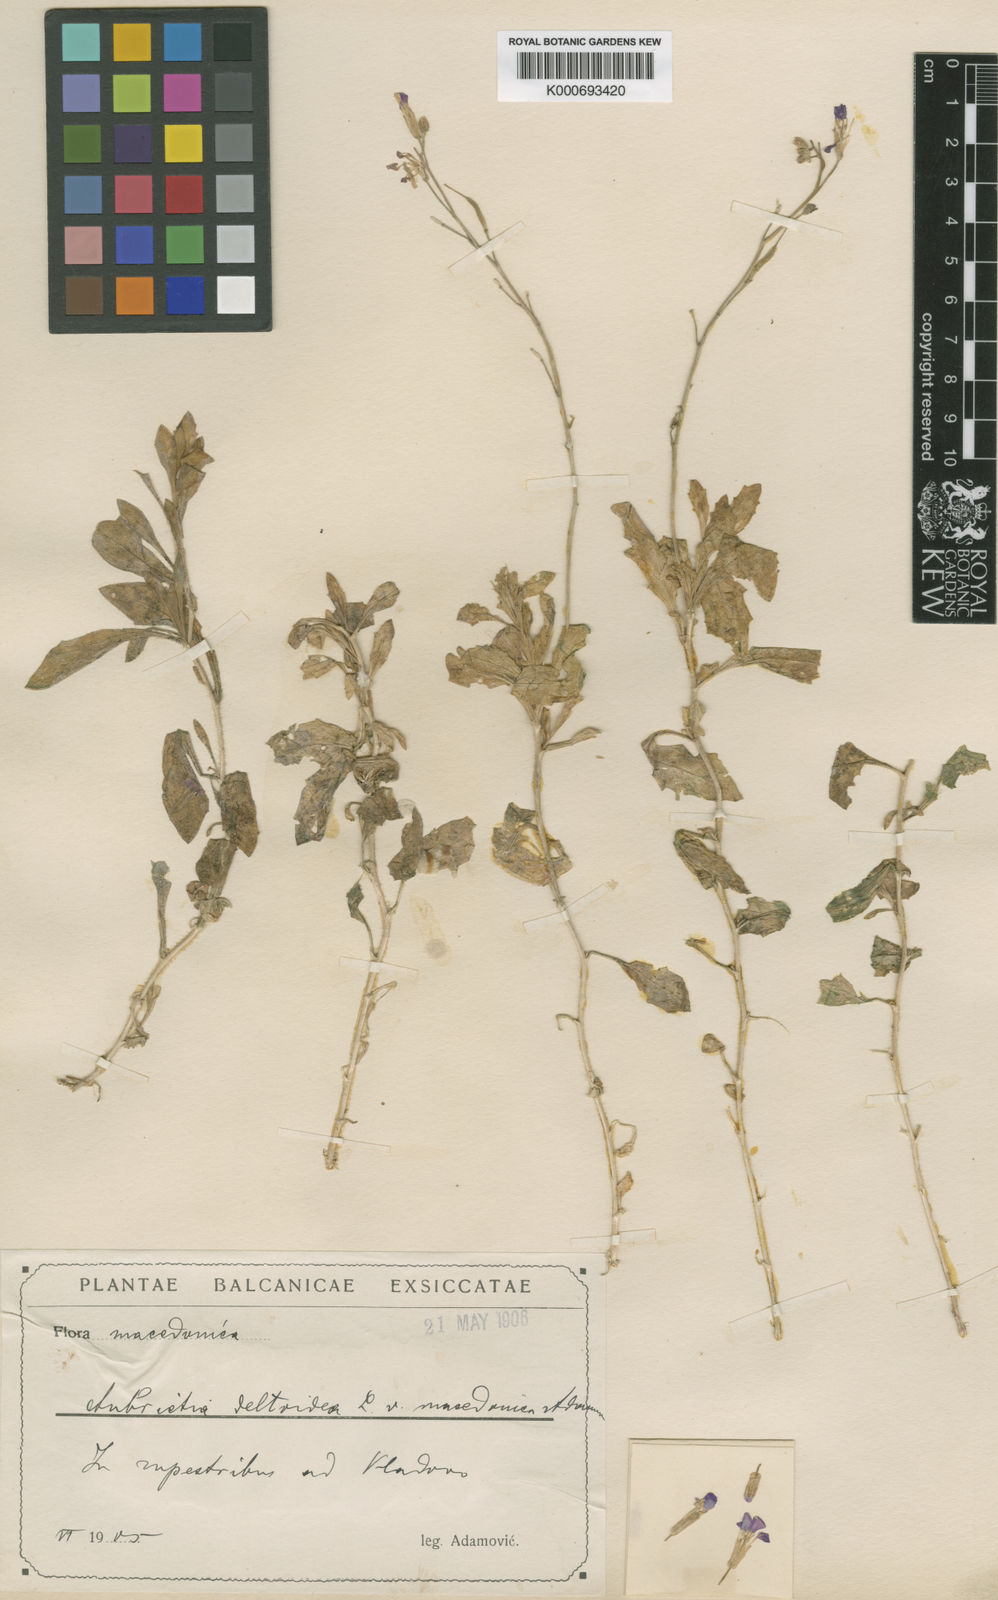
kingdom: Plantae
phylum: Tracheophyta
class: Magnoliopsida
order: Brassicales
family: Brassicaceae
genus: Aubrieta
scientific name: Aubrieta deltoidea
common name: Aubretia
